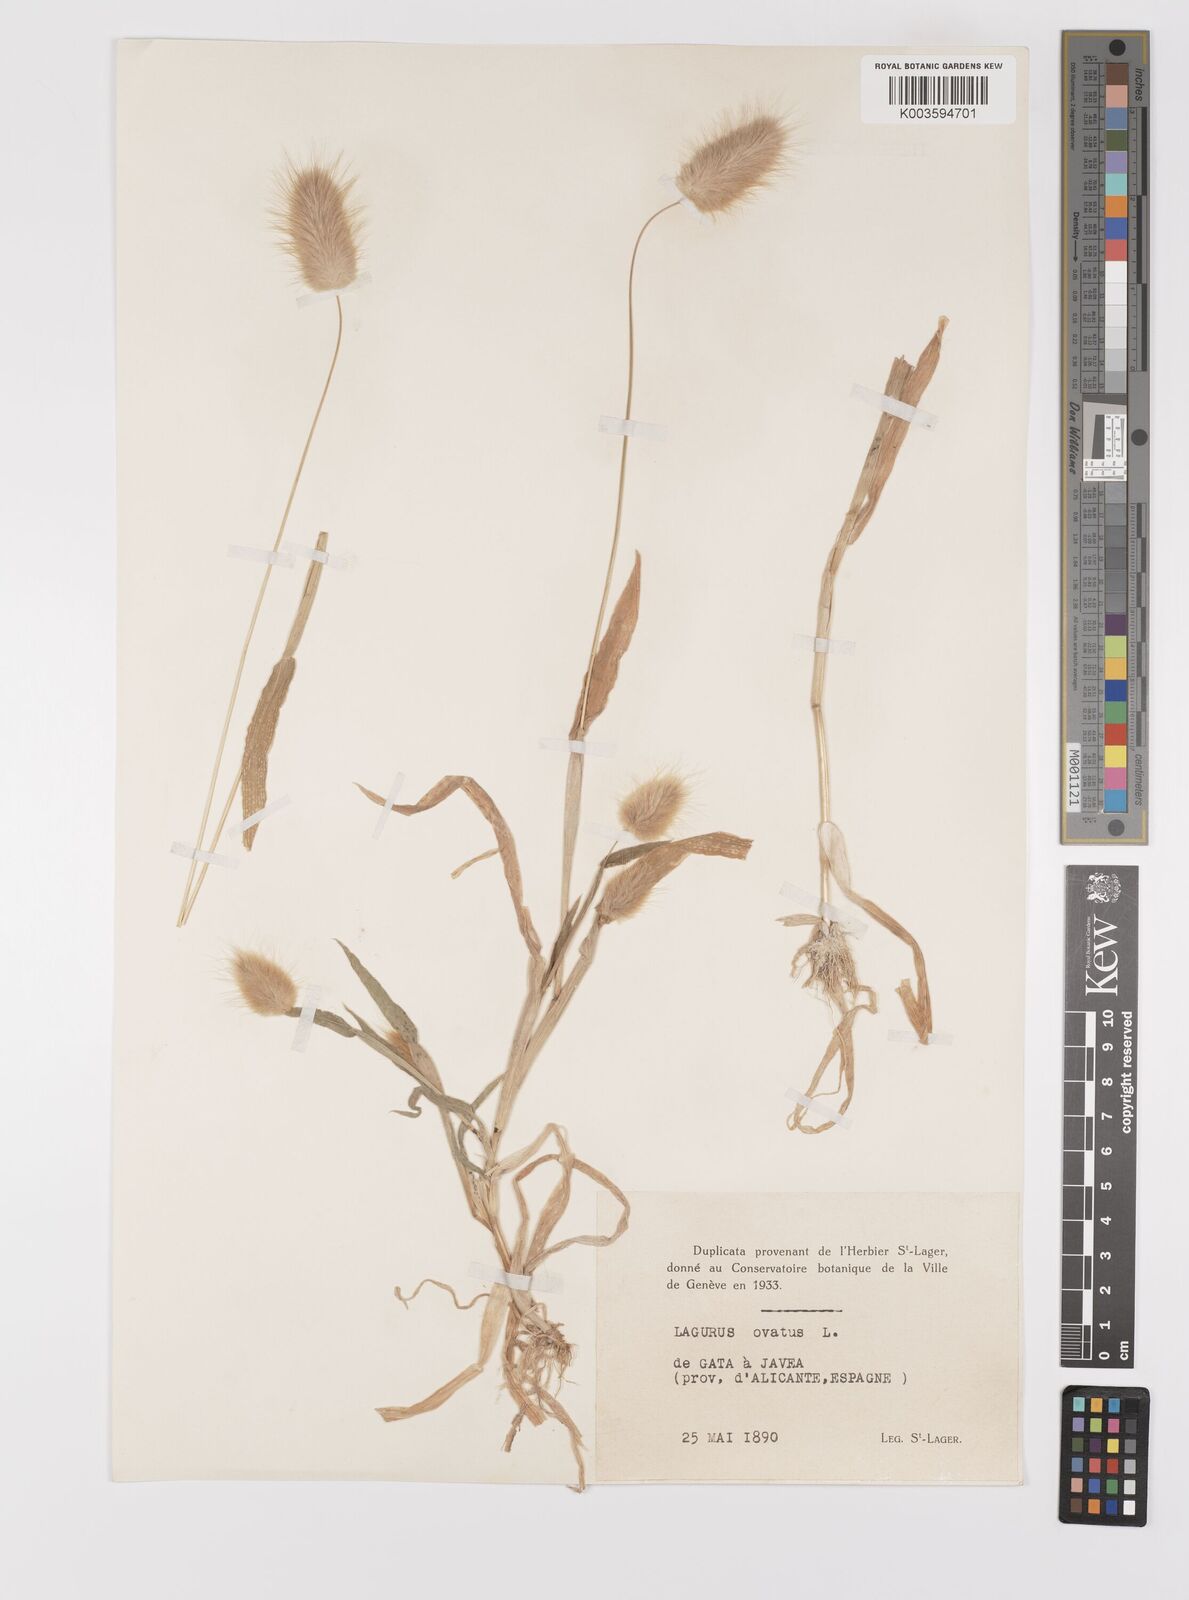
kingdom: Plantae
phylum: Tracheophyta
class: Liliopsida
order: Poales
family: Poaceae
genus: Lagurus
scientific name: Lagurus ovatus
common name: Hare's-tail
